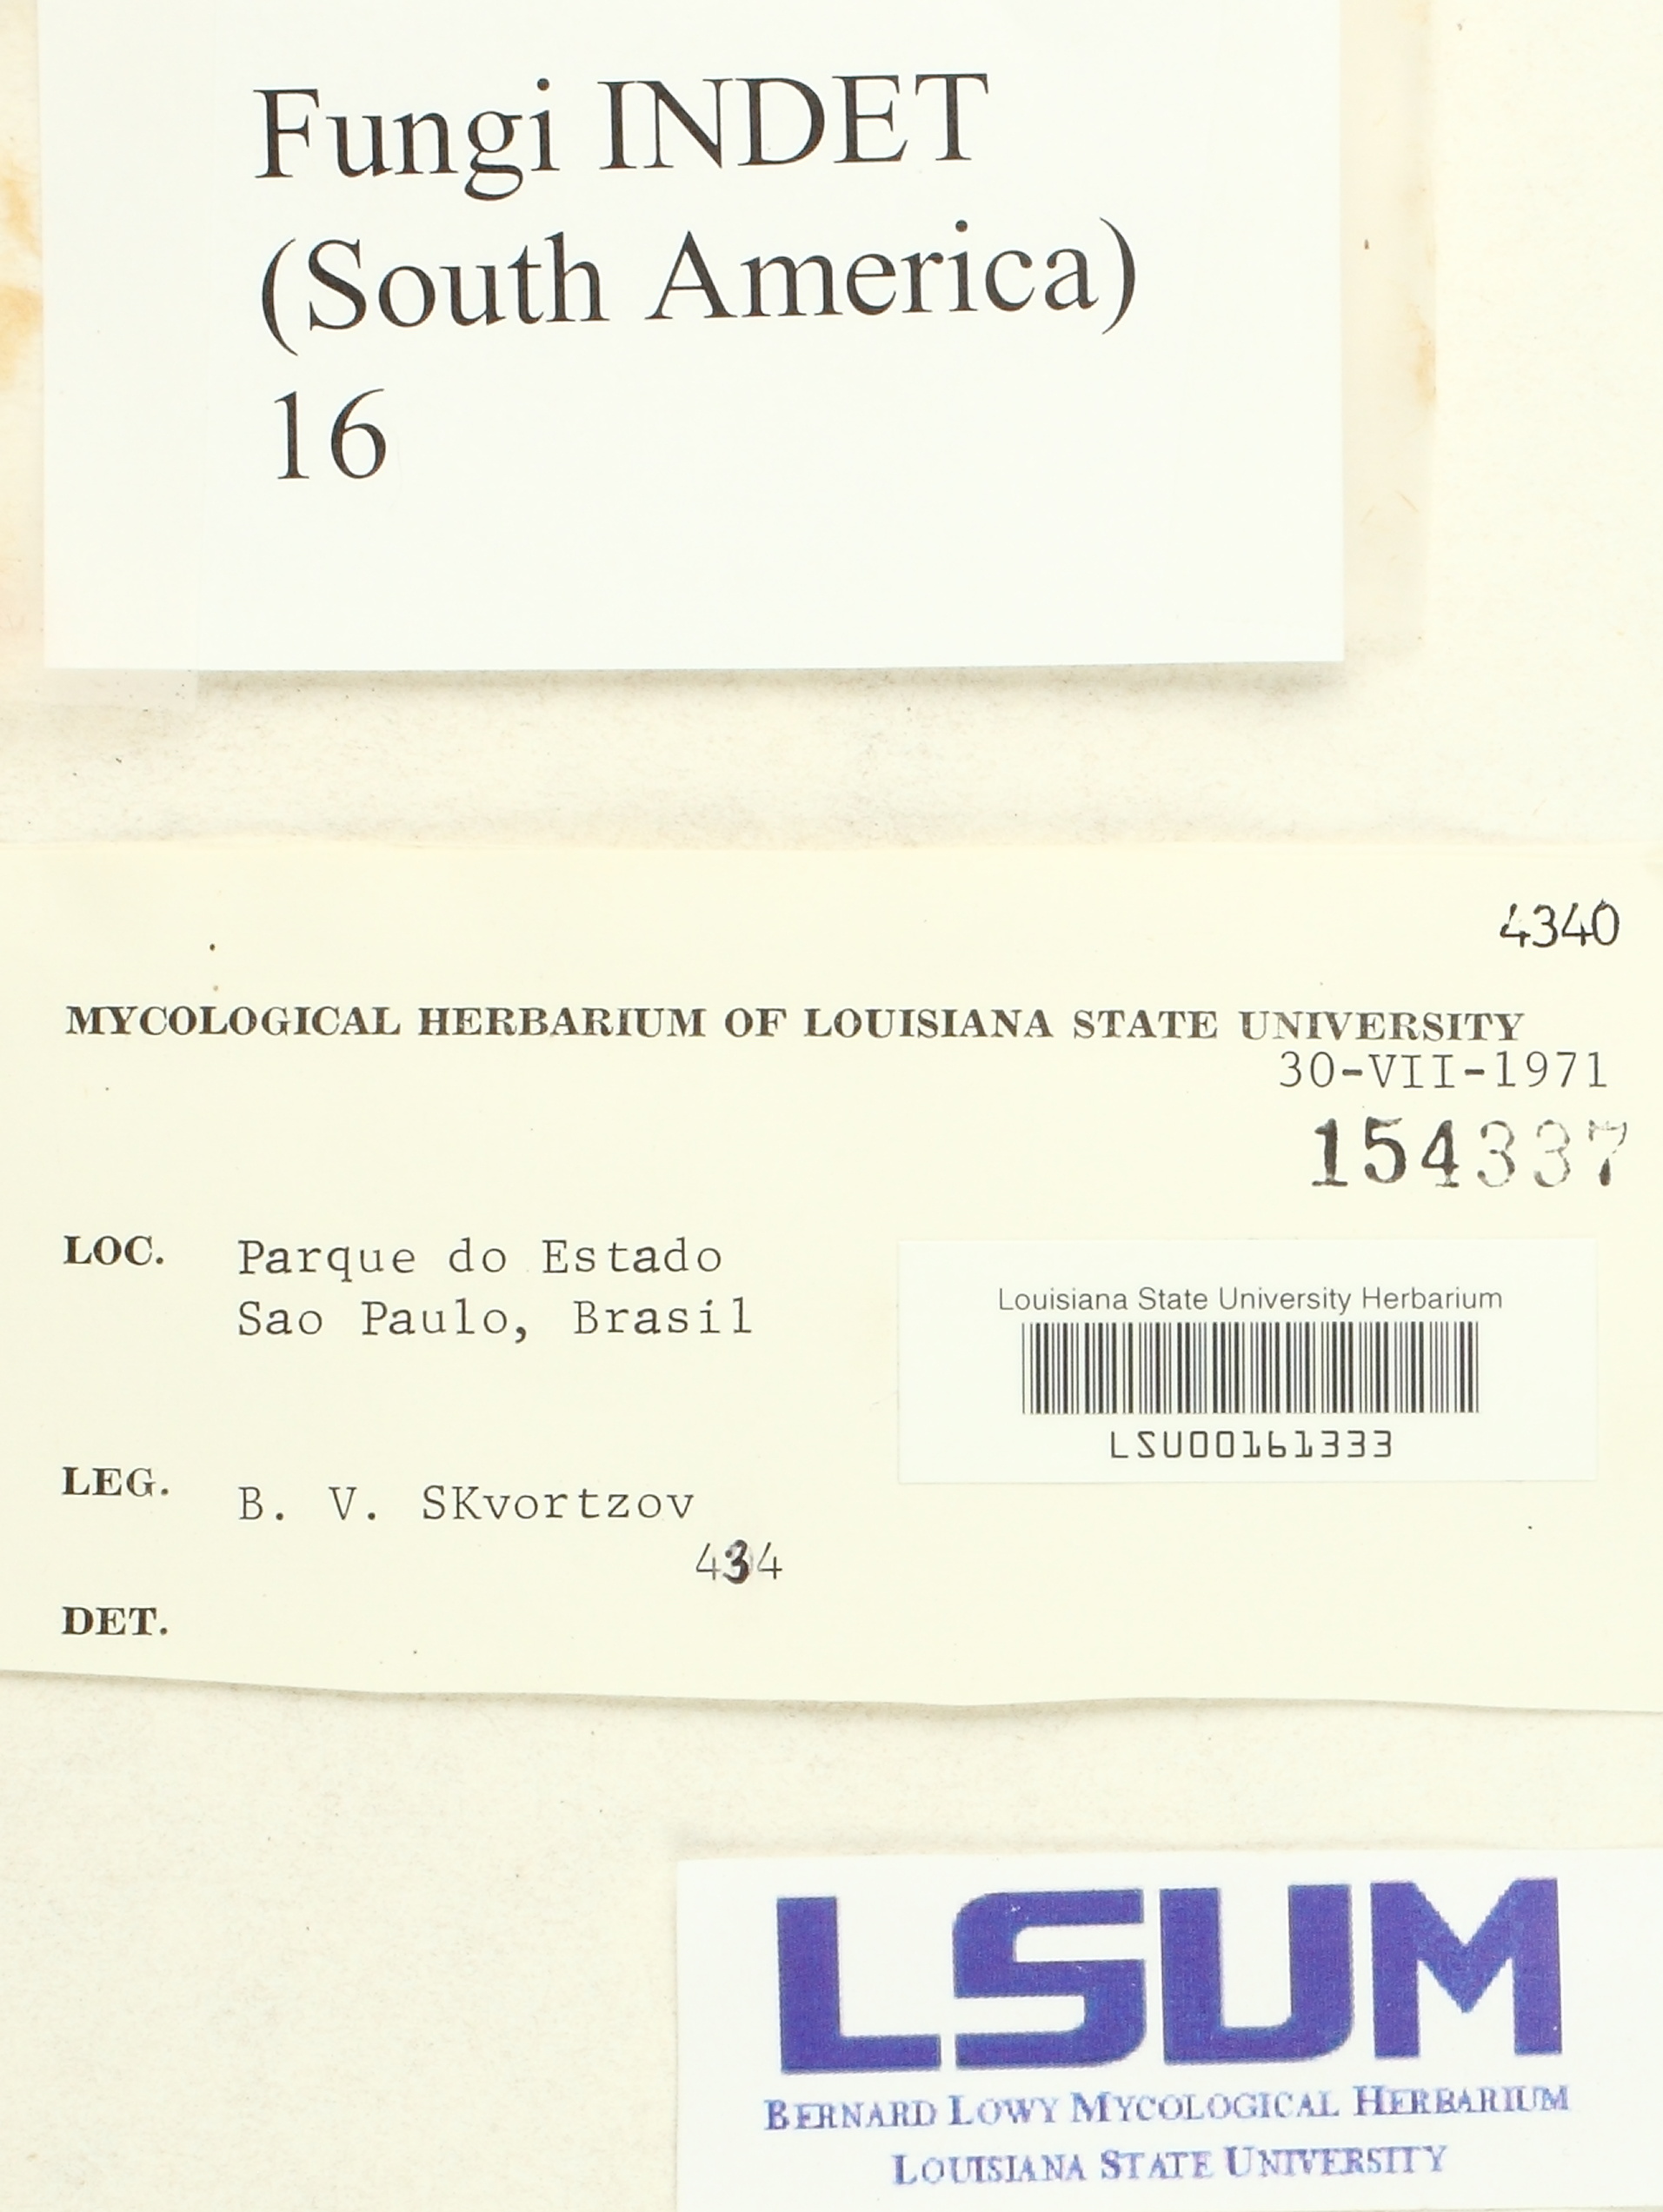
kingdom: Fungi
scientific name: Fungi
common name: Fungi
